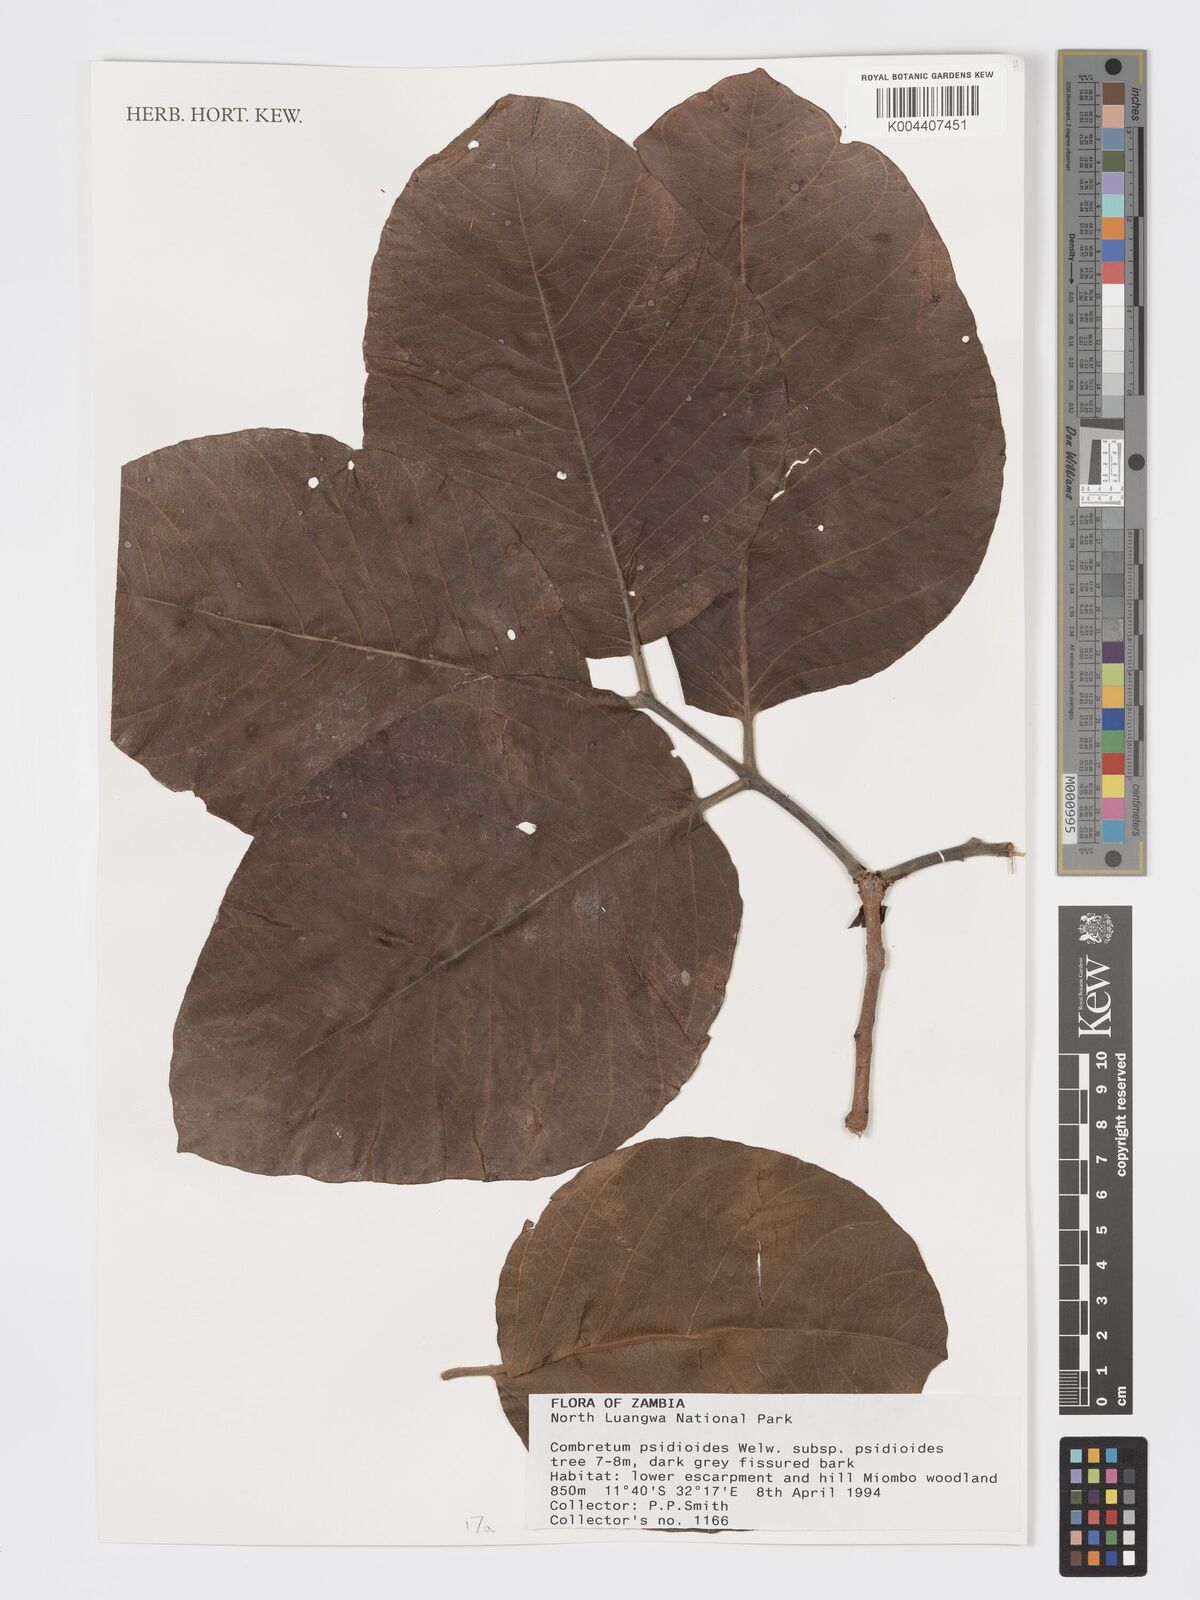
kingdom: Plantae
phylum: Tracheophyta
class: Magnoliopsida
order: Myrtales
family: Combretaceae
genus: Combretum
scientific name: Combretum psidioides
